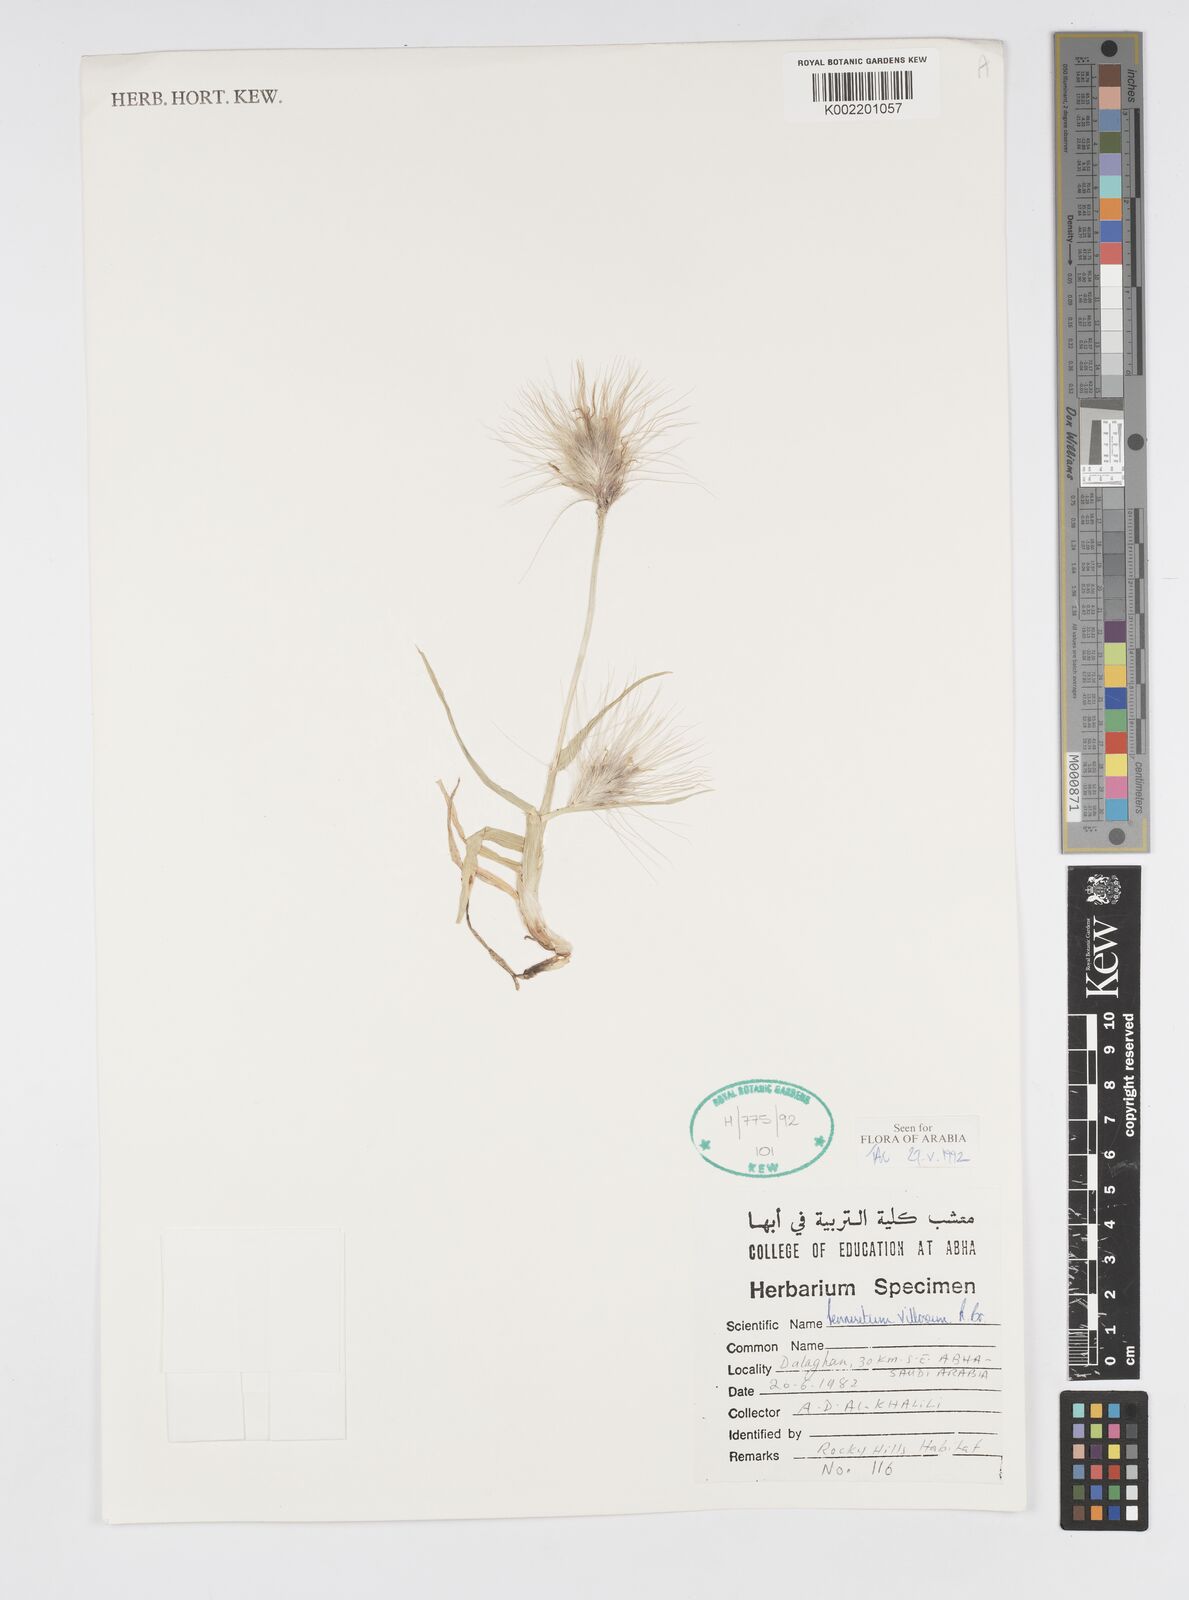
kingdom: Plantae
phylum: Tracheophyta
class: Liliopsida
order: Poales
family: Poaceae
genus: Cenchrus
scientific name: Cenchrus longisetus
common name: Feathertop
